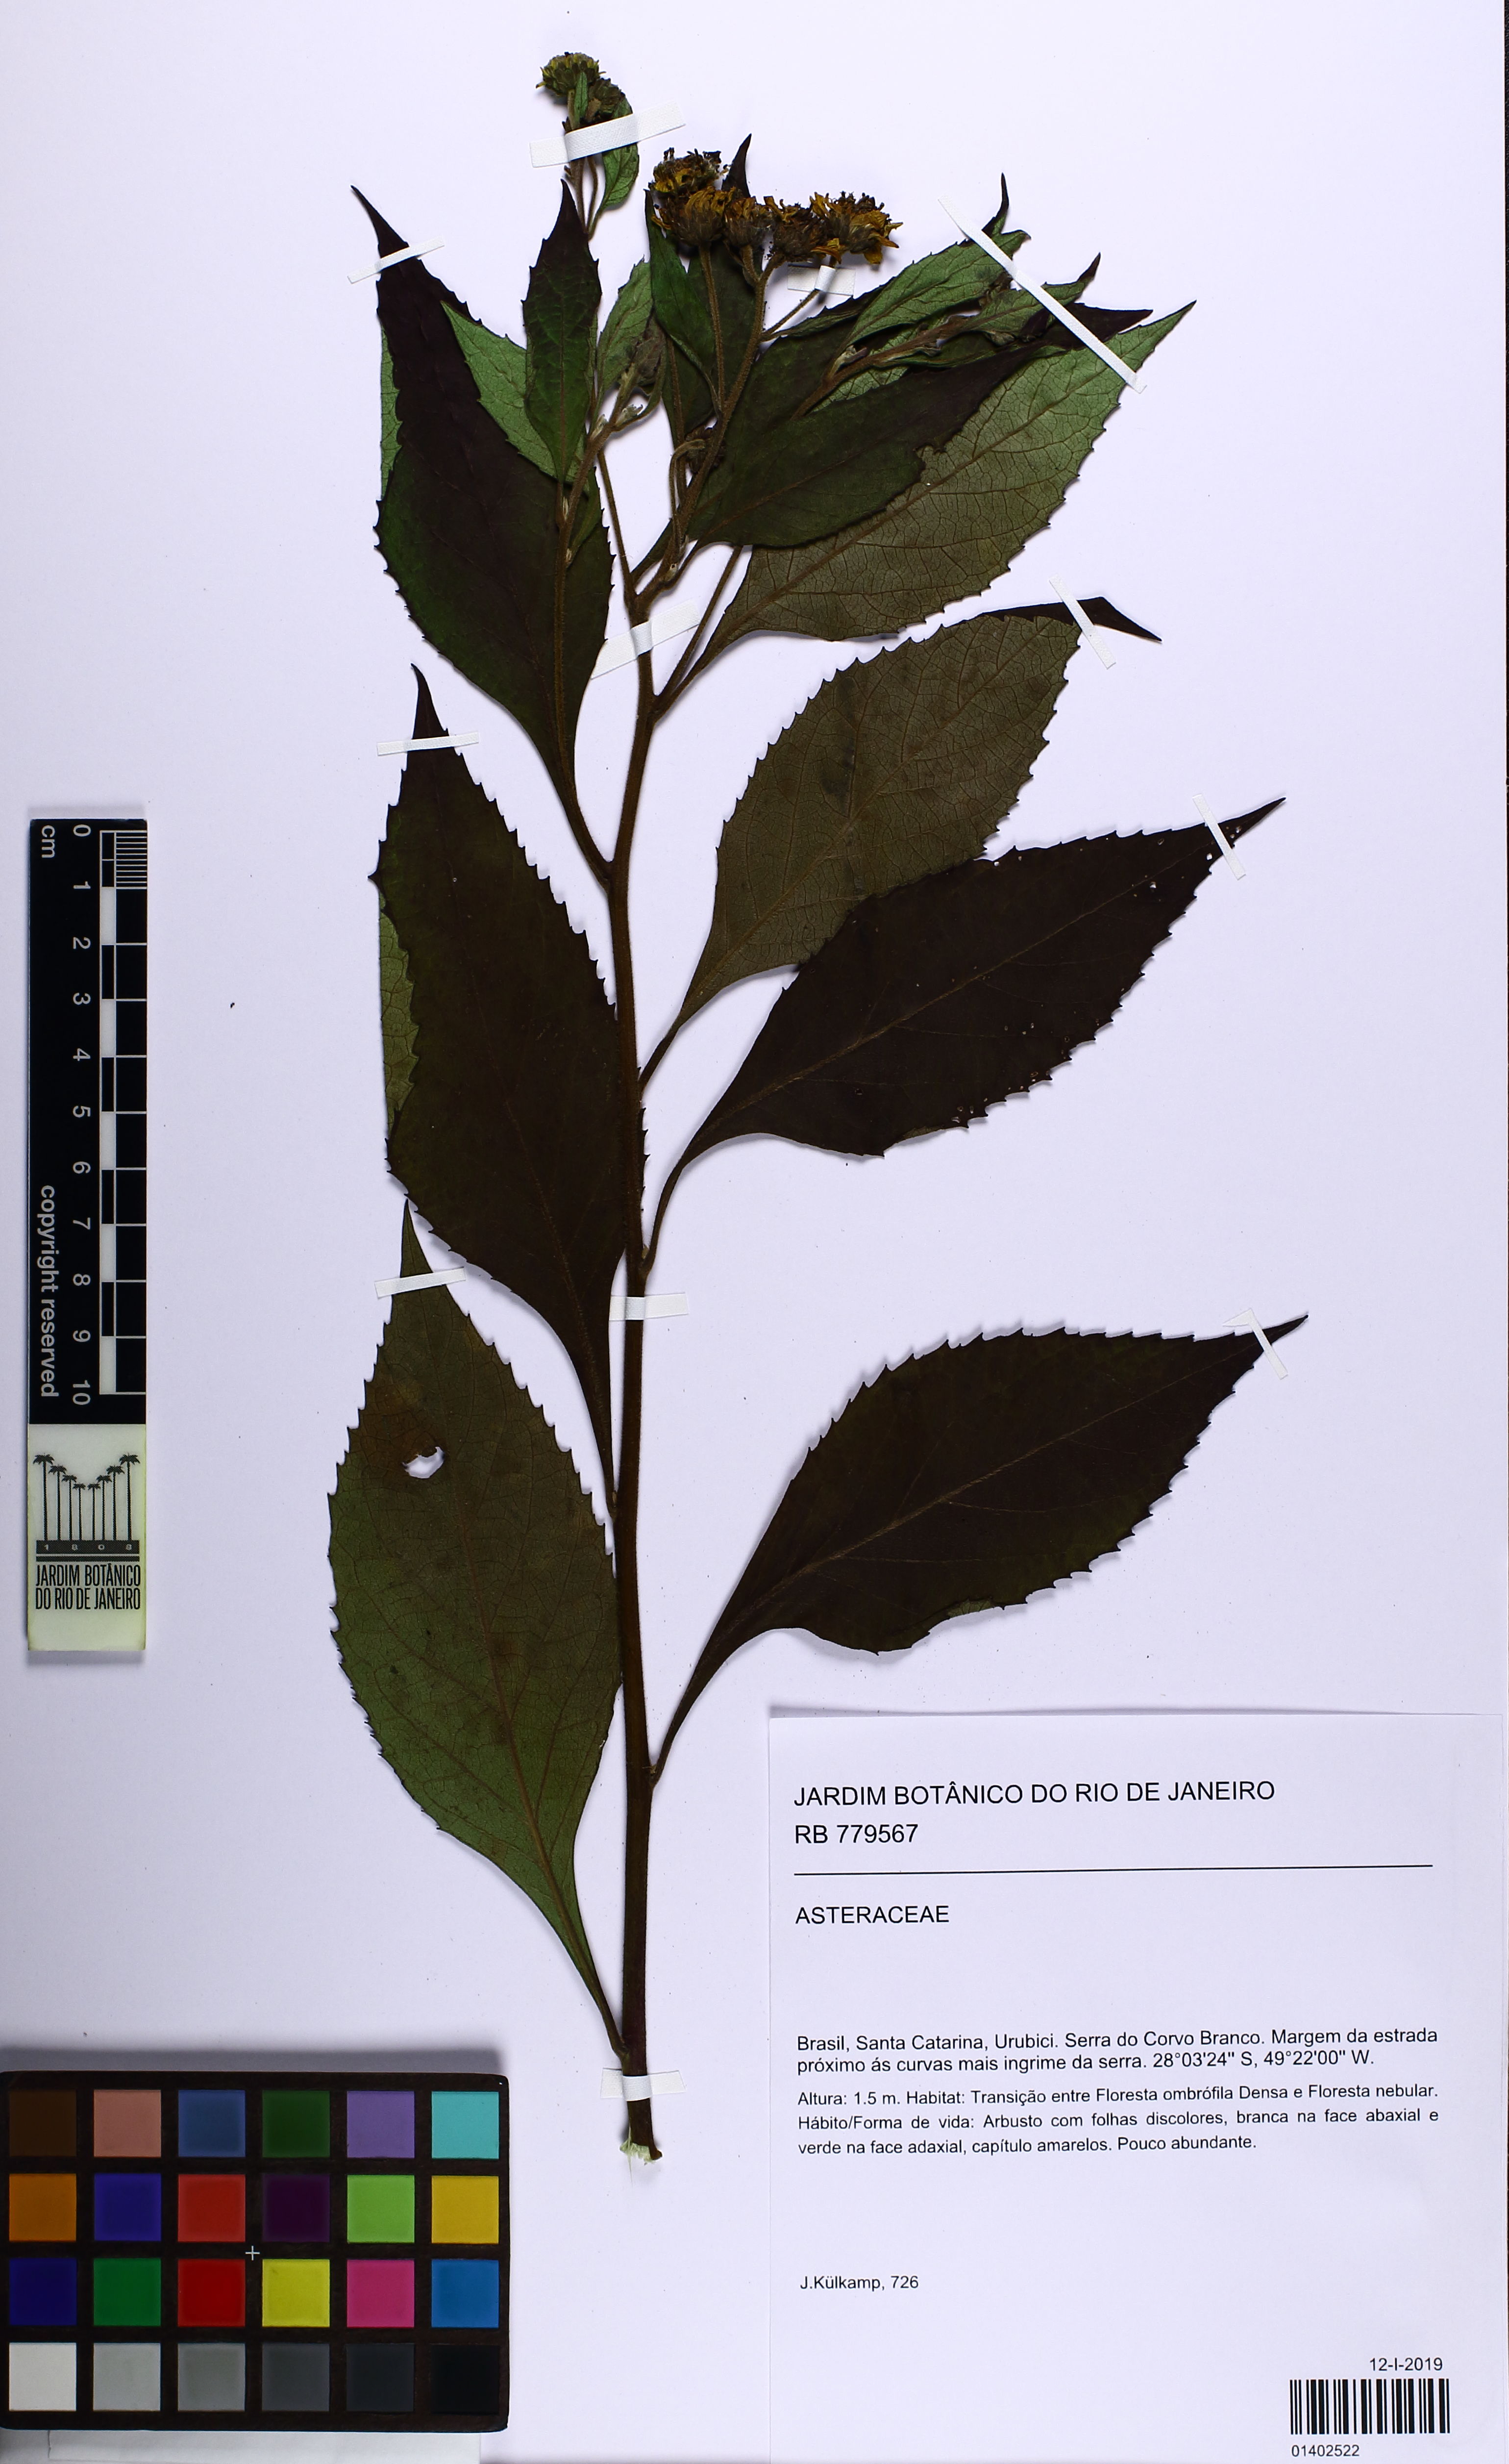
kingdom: Plantae
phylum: Tracheophyta
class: Magnoliopsida
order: Asterales
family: Asteraceae
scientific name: Asteraceae
